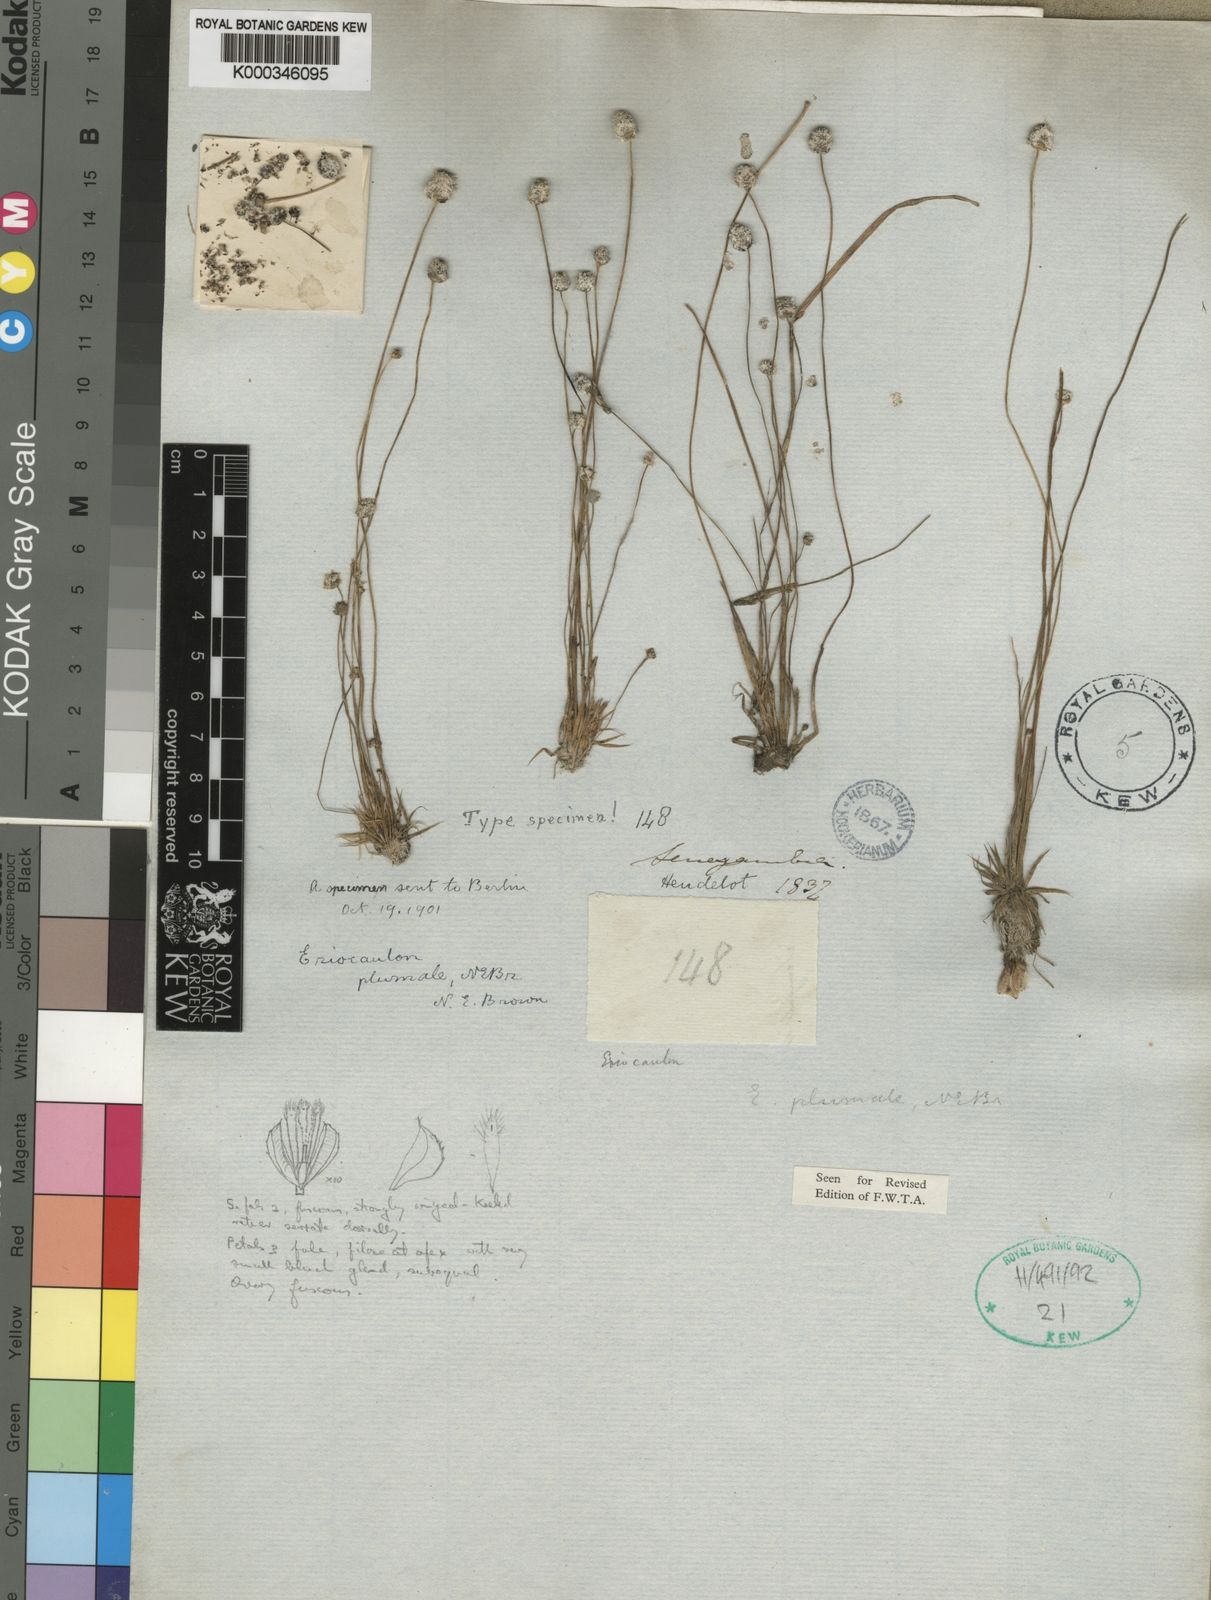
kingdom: Plantae
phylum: Tracheophyta
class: Liliopsida
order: Poales
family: Eriocaulaceae
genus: Eriocaulon
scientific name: Eriocaulon plumale
